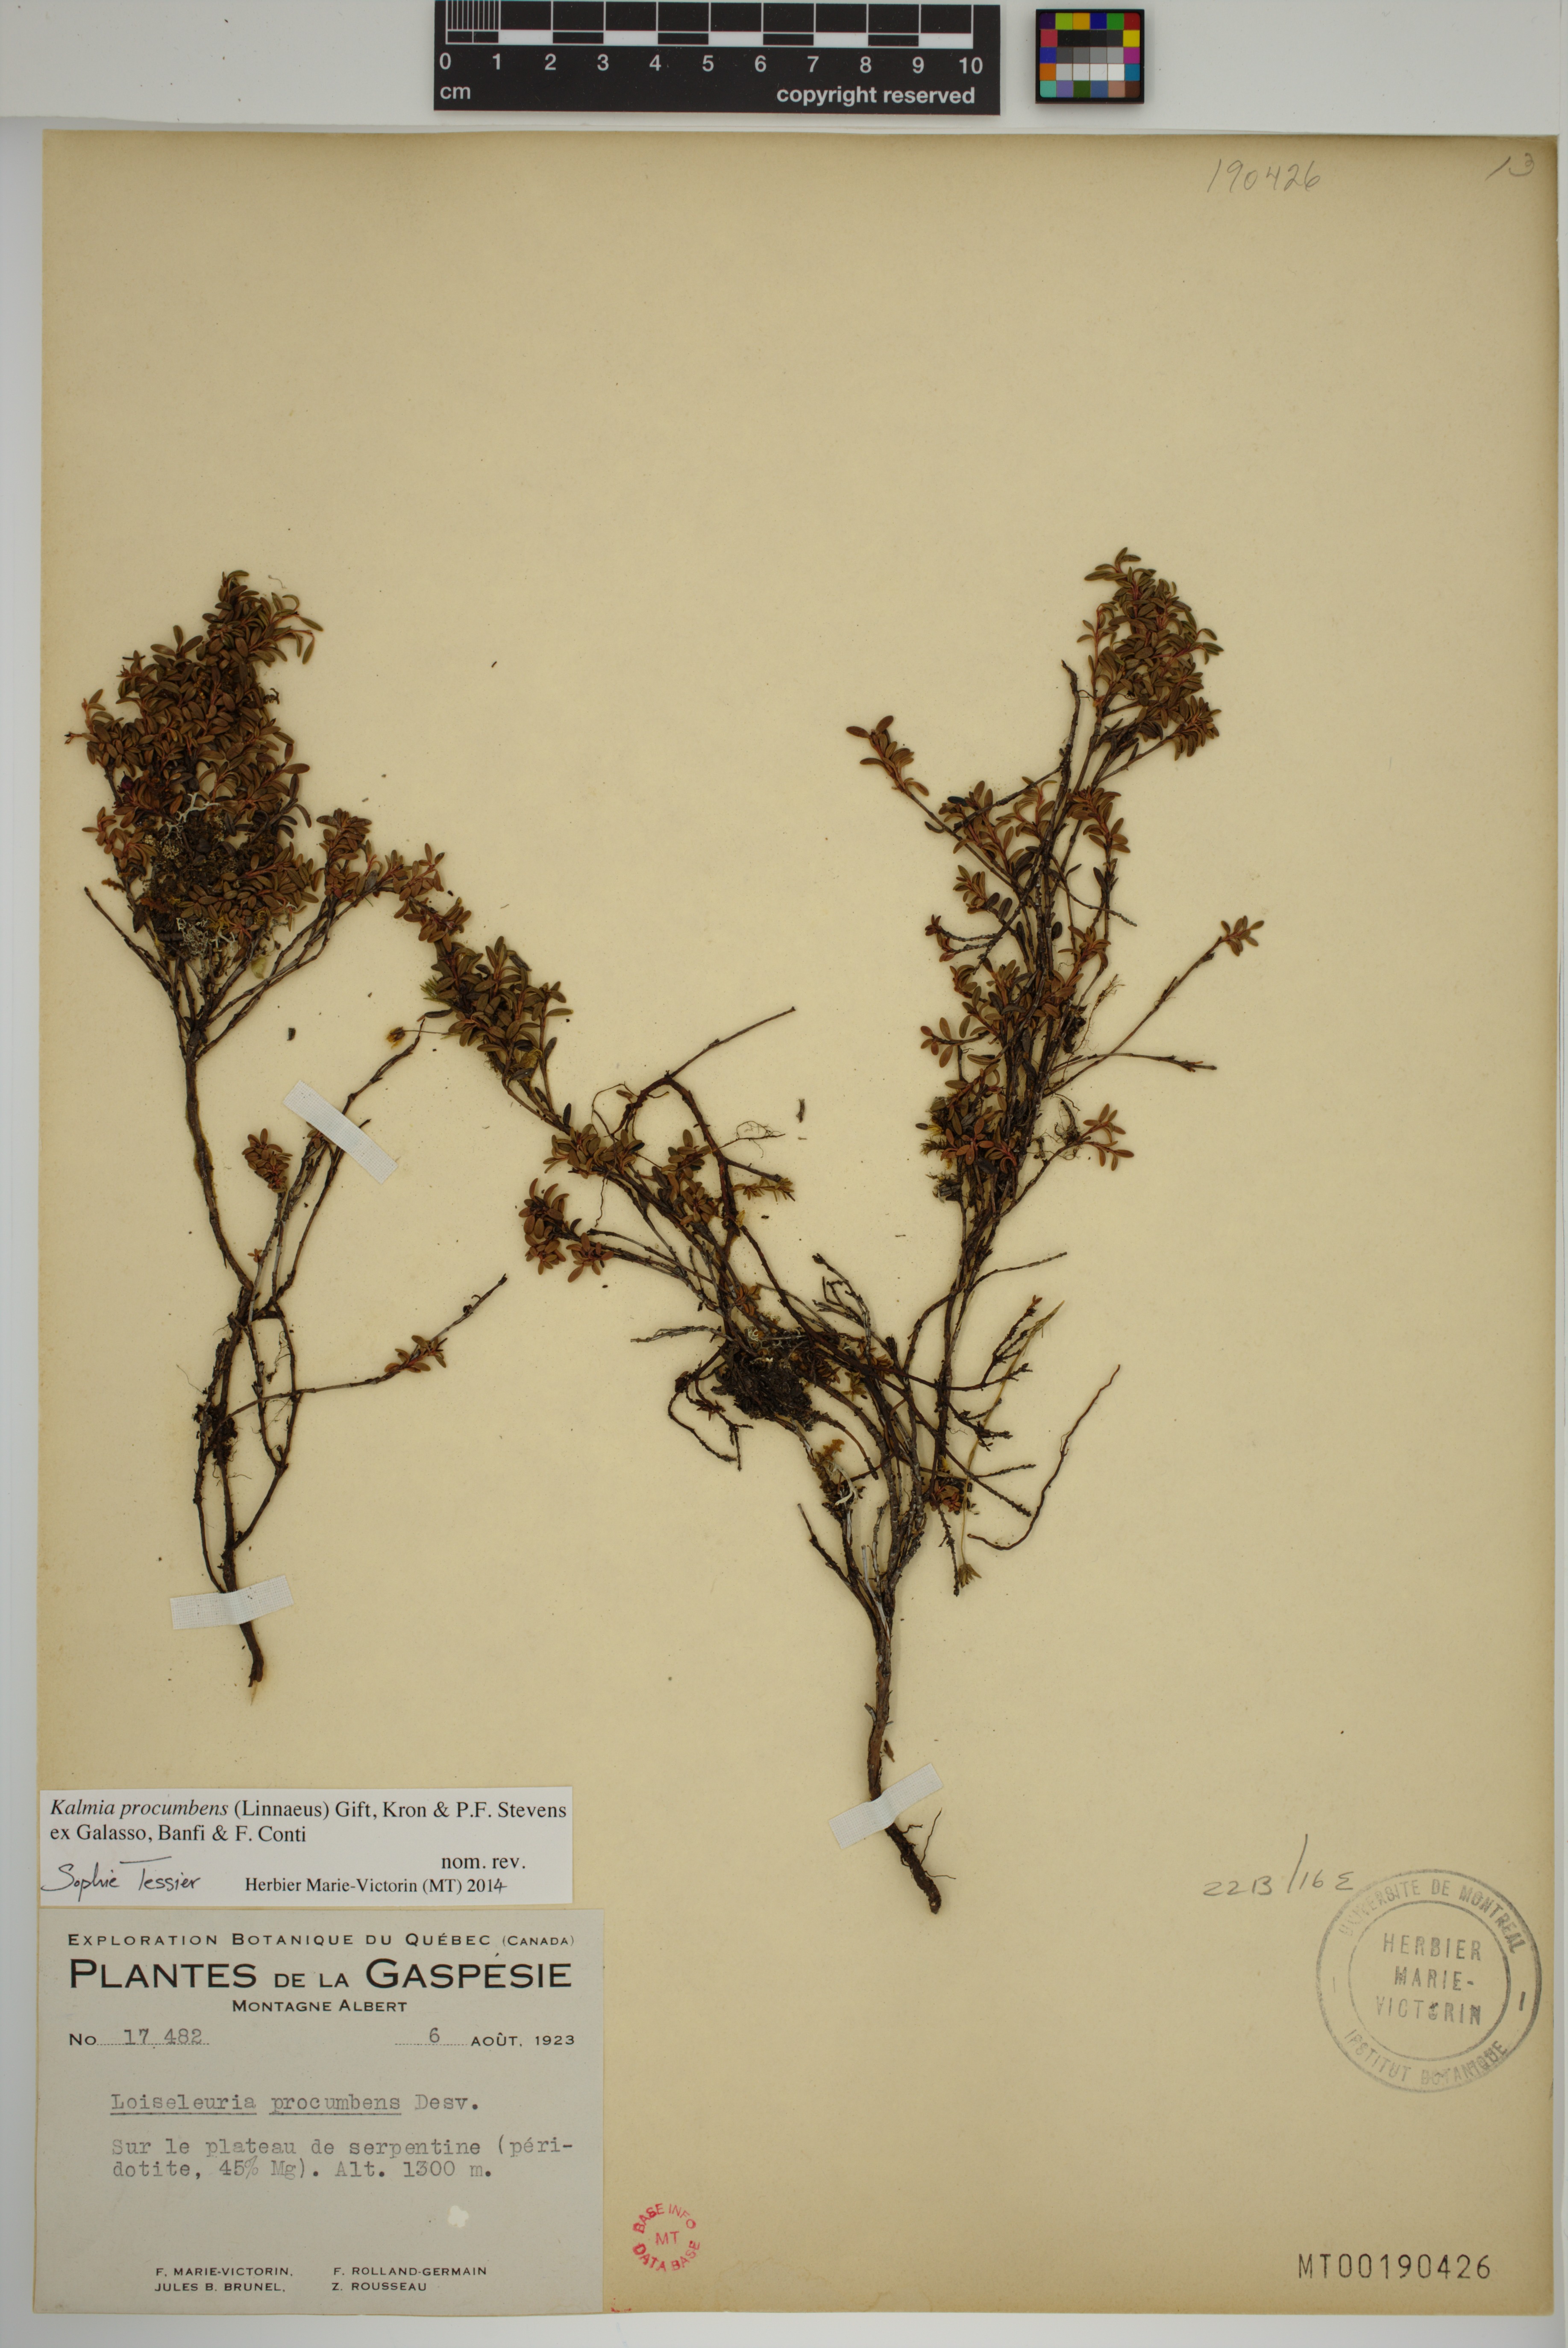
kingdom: Plantae
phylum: Tracheophyta
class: Magnoliopsida
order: Ericales
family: Ericaceae
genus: Kalmia
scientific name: Kalmia procumbens
